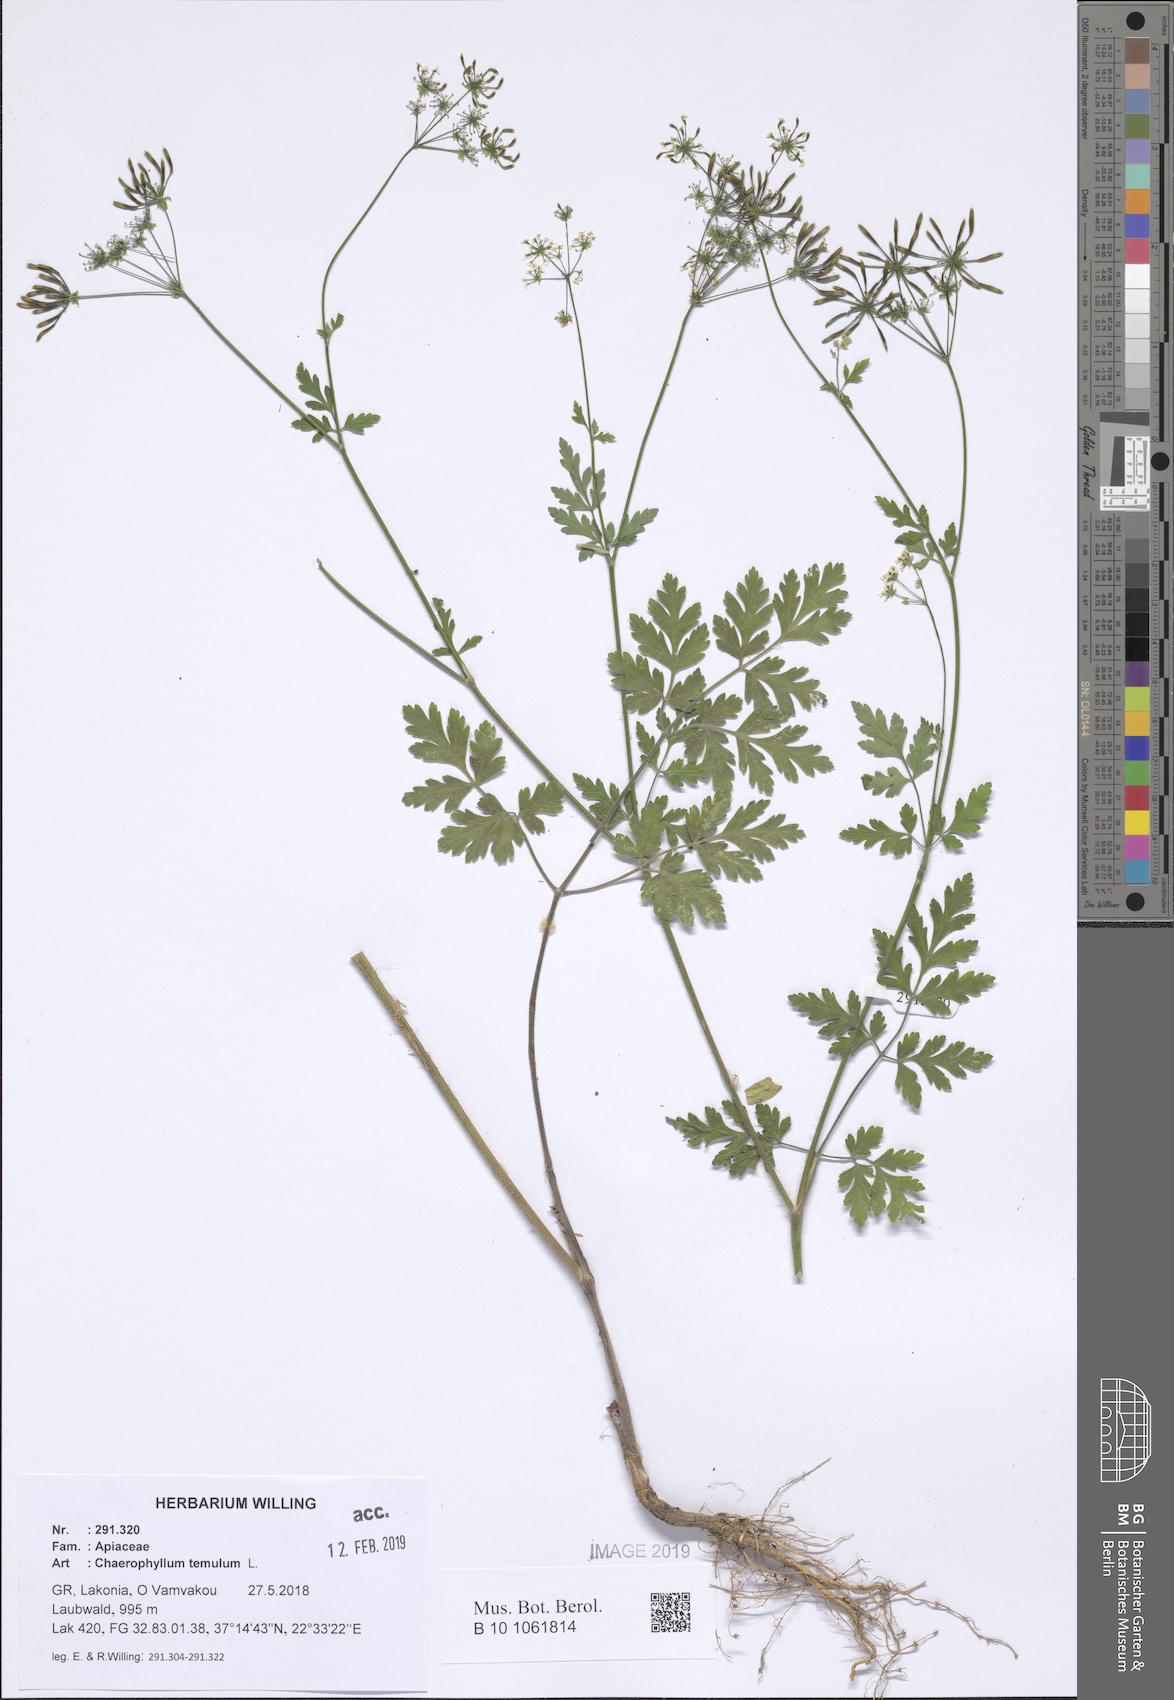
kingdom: Plantae
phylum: Tracheophyta
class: Magnoliopsida
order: Apiales
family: Apiaceae
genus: Chaerophyllum
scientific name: Chaerophyllum temulum
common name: Rough chervil
